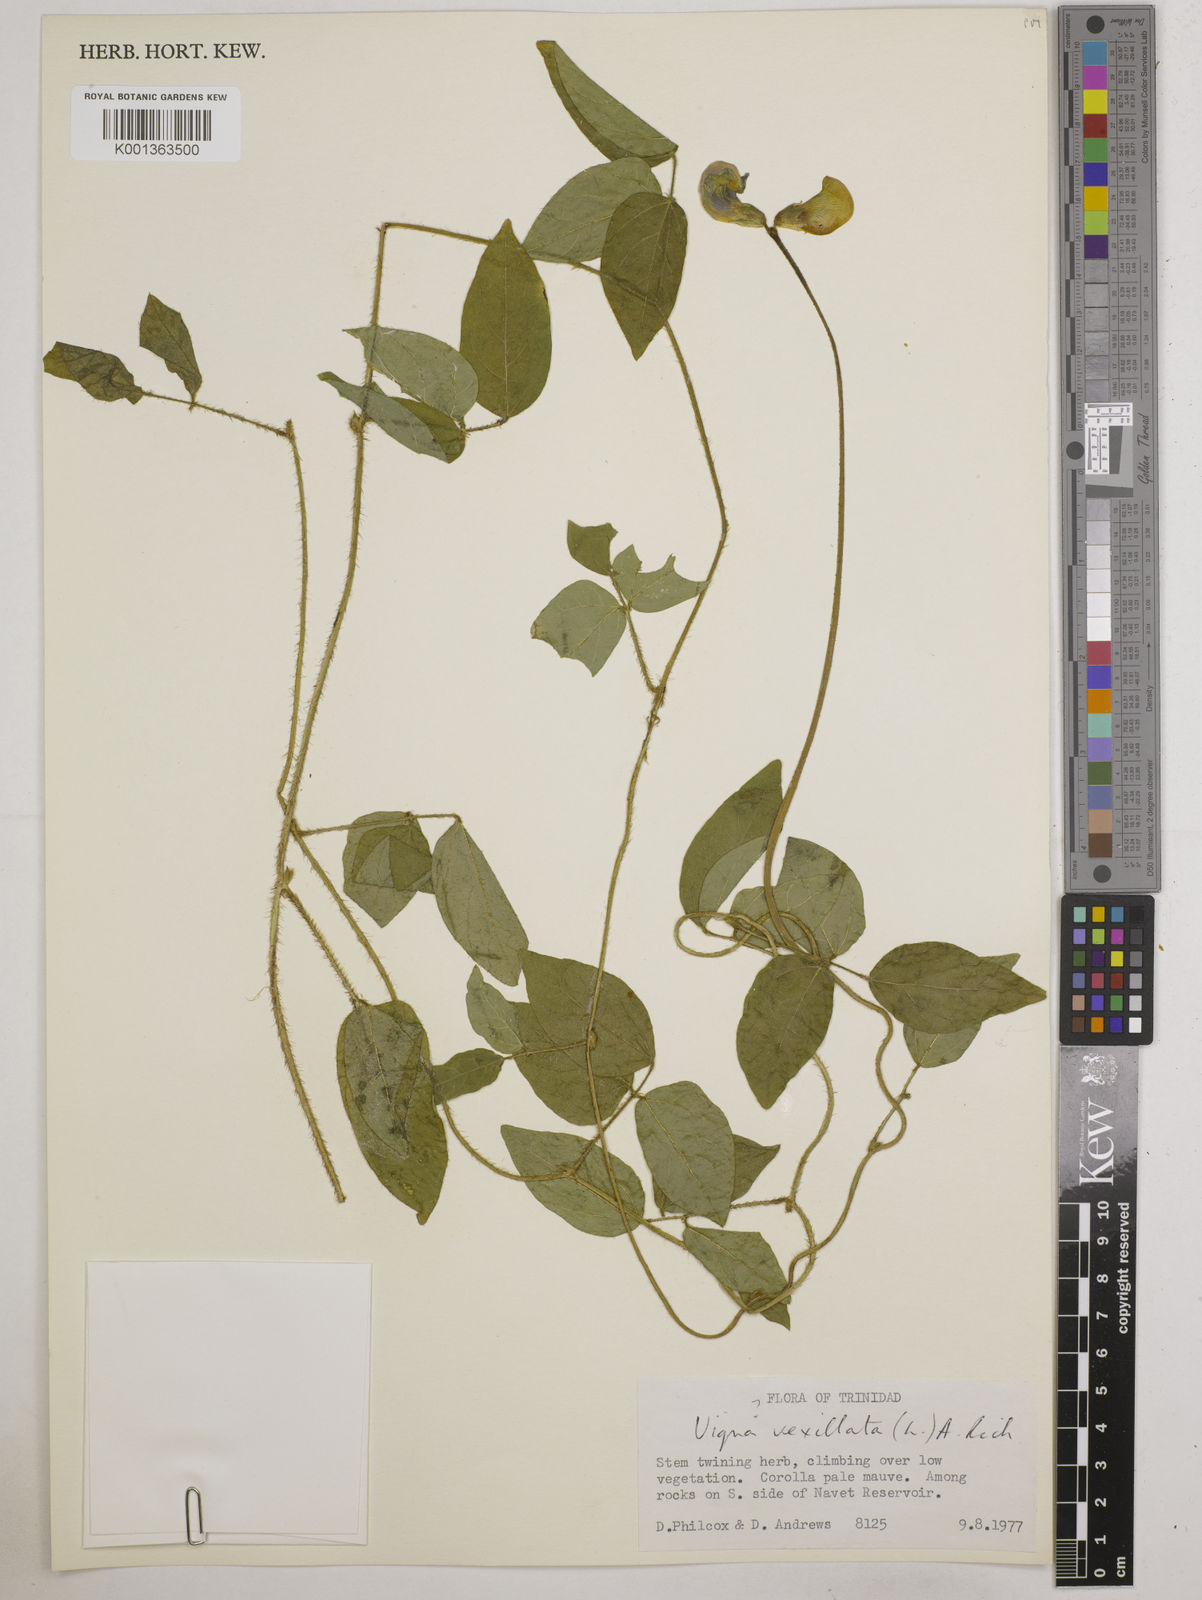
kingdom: Plantae
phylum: Tracheophyta
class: Magnoliopsida
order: Fabales
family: Fabaceae
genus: Vigna
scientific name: Vigna vexillata
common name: Zombi pea
